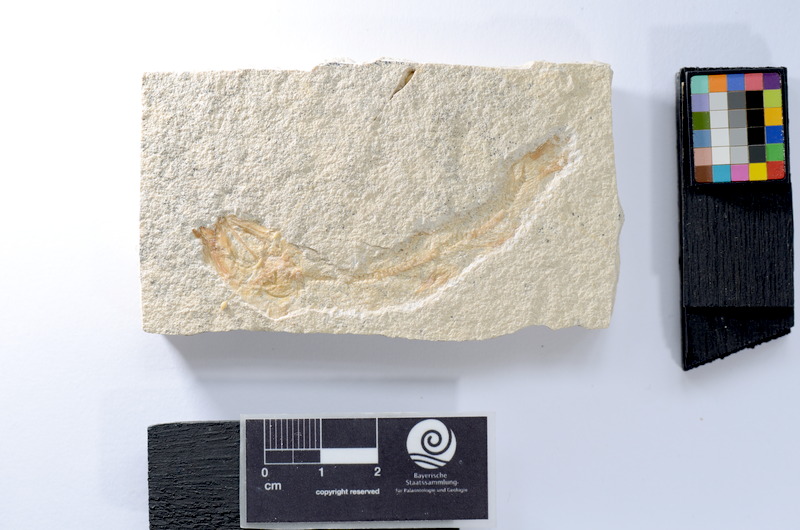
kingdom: Animalia
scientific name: Animalia
